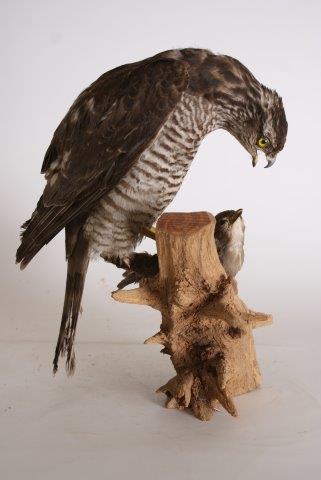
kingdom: Animalia
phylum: Chordata
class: Aves
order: Accipitriformes
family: Accipitridae
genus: Accipiter
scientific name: Accipiter nisus
